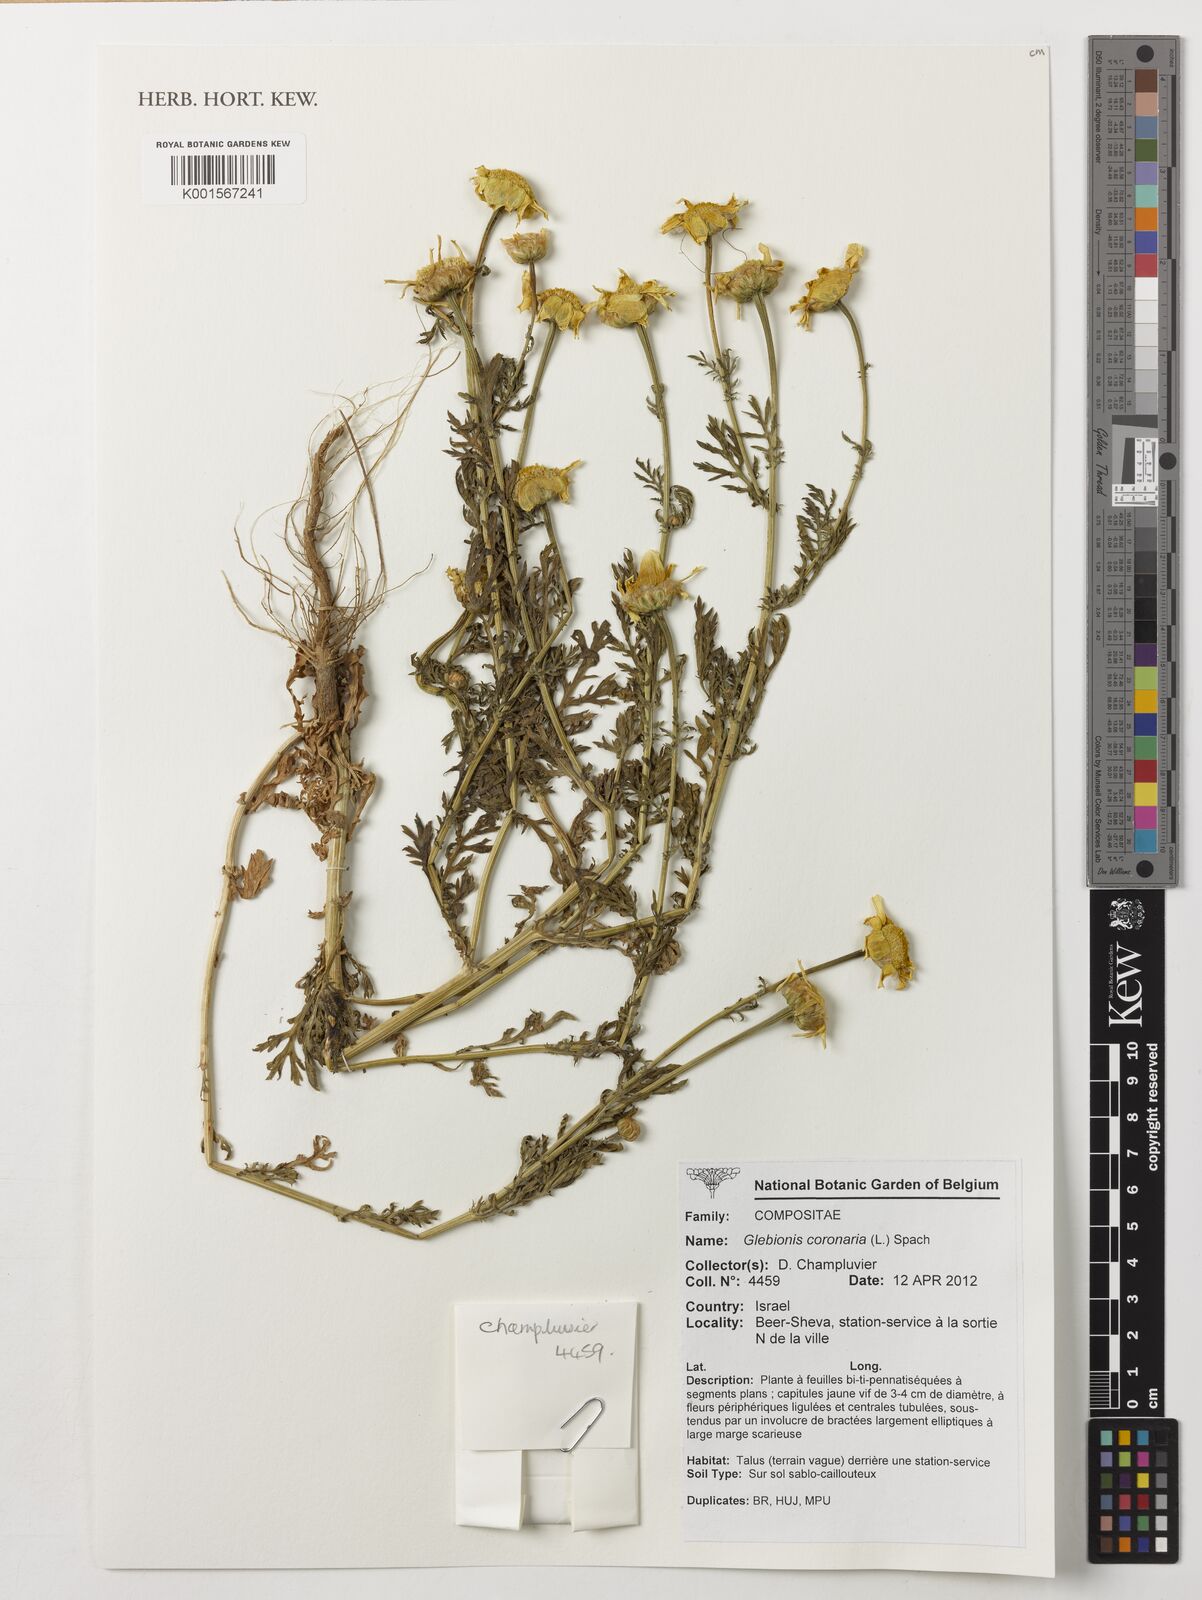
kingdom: Plantae
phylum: Tracheophyta
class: Magnoliopsida
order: Asterales
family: Asteraceae
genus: Glebionis
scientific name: Glebionis coronaria
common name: Crowndaisy
